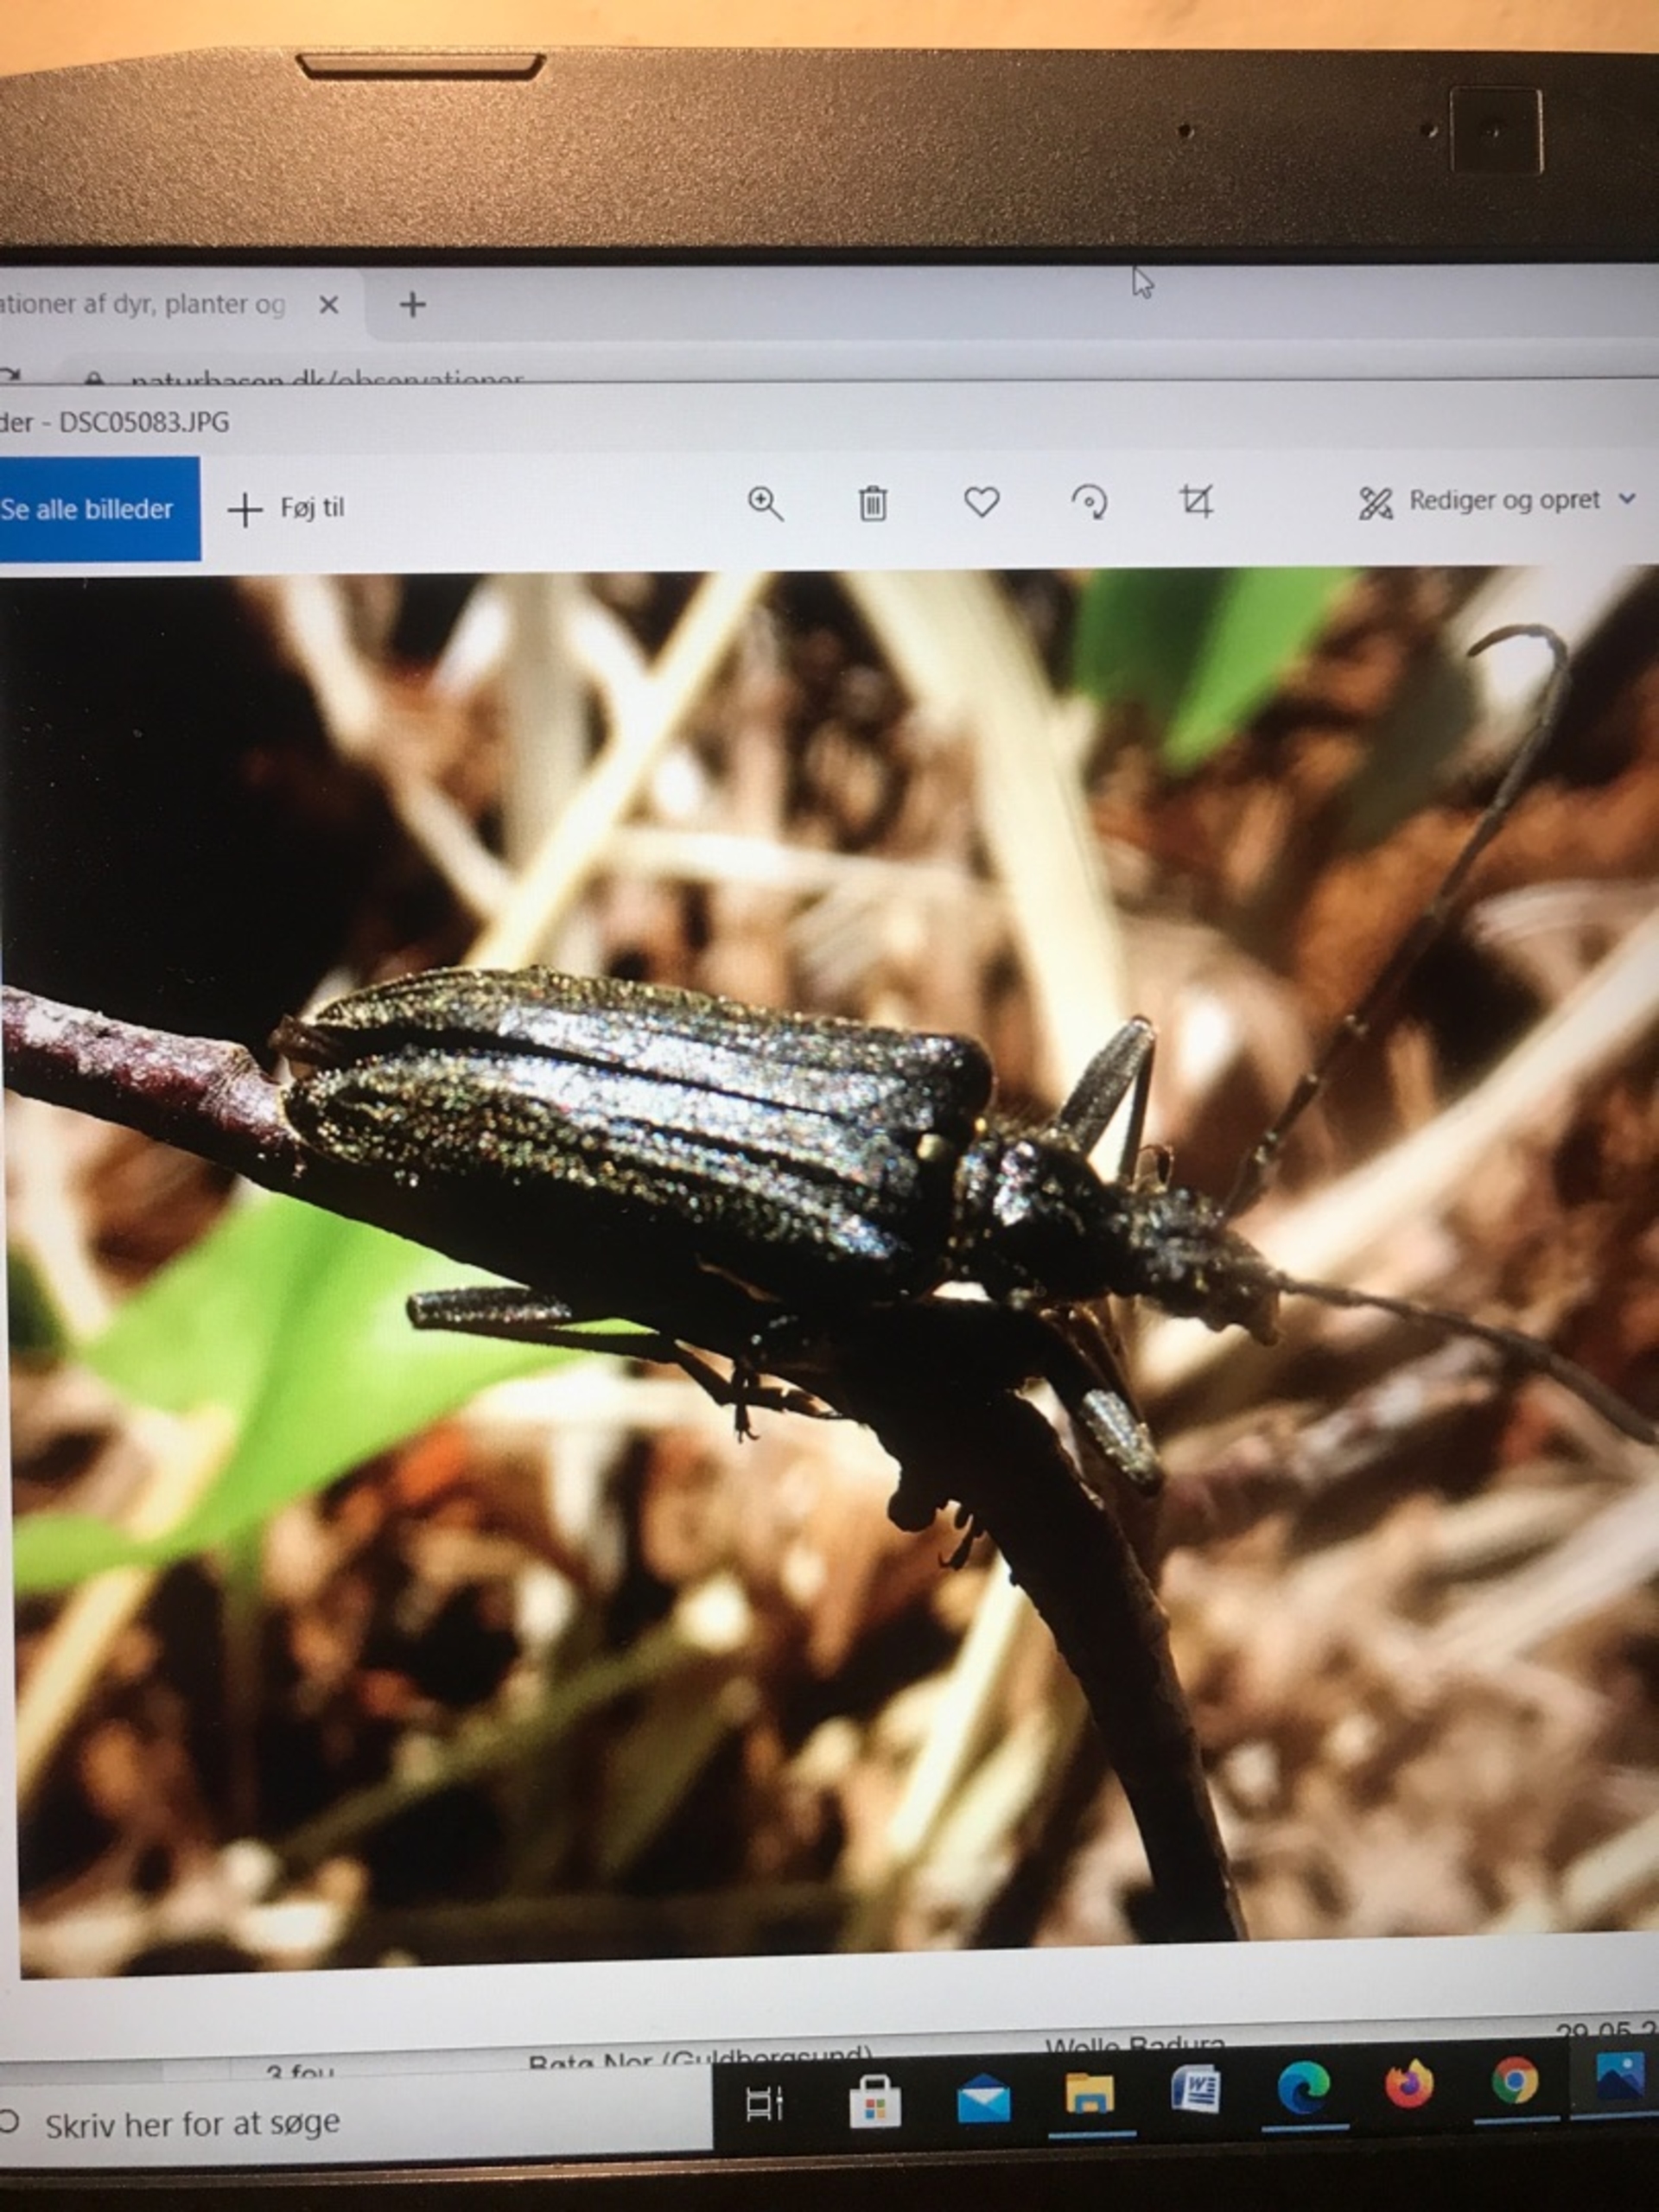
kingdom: Animalia
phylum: Arthropoda
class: Insecta
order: Coleoptera
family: Cerambycidae
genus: Oxymirus
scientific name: Oxymirus cursor
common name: Forskelligfarvet hækkebuk
